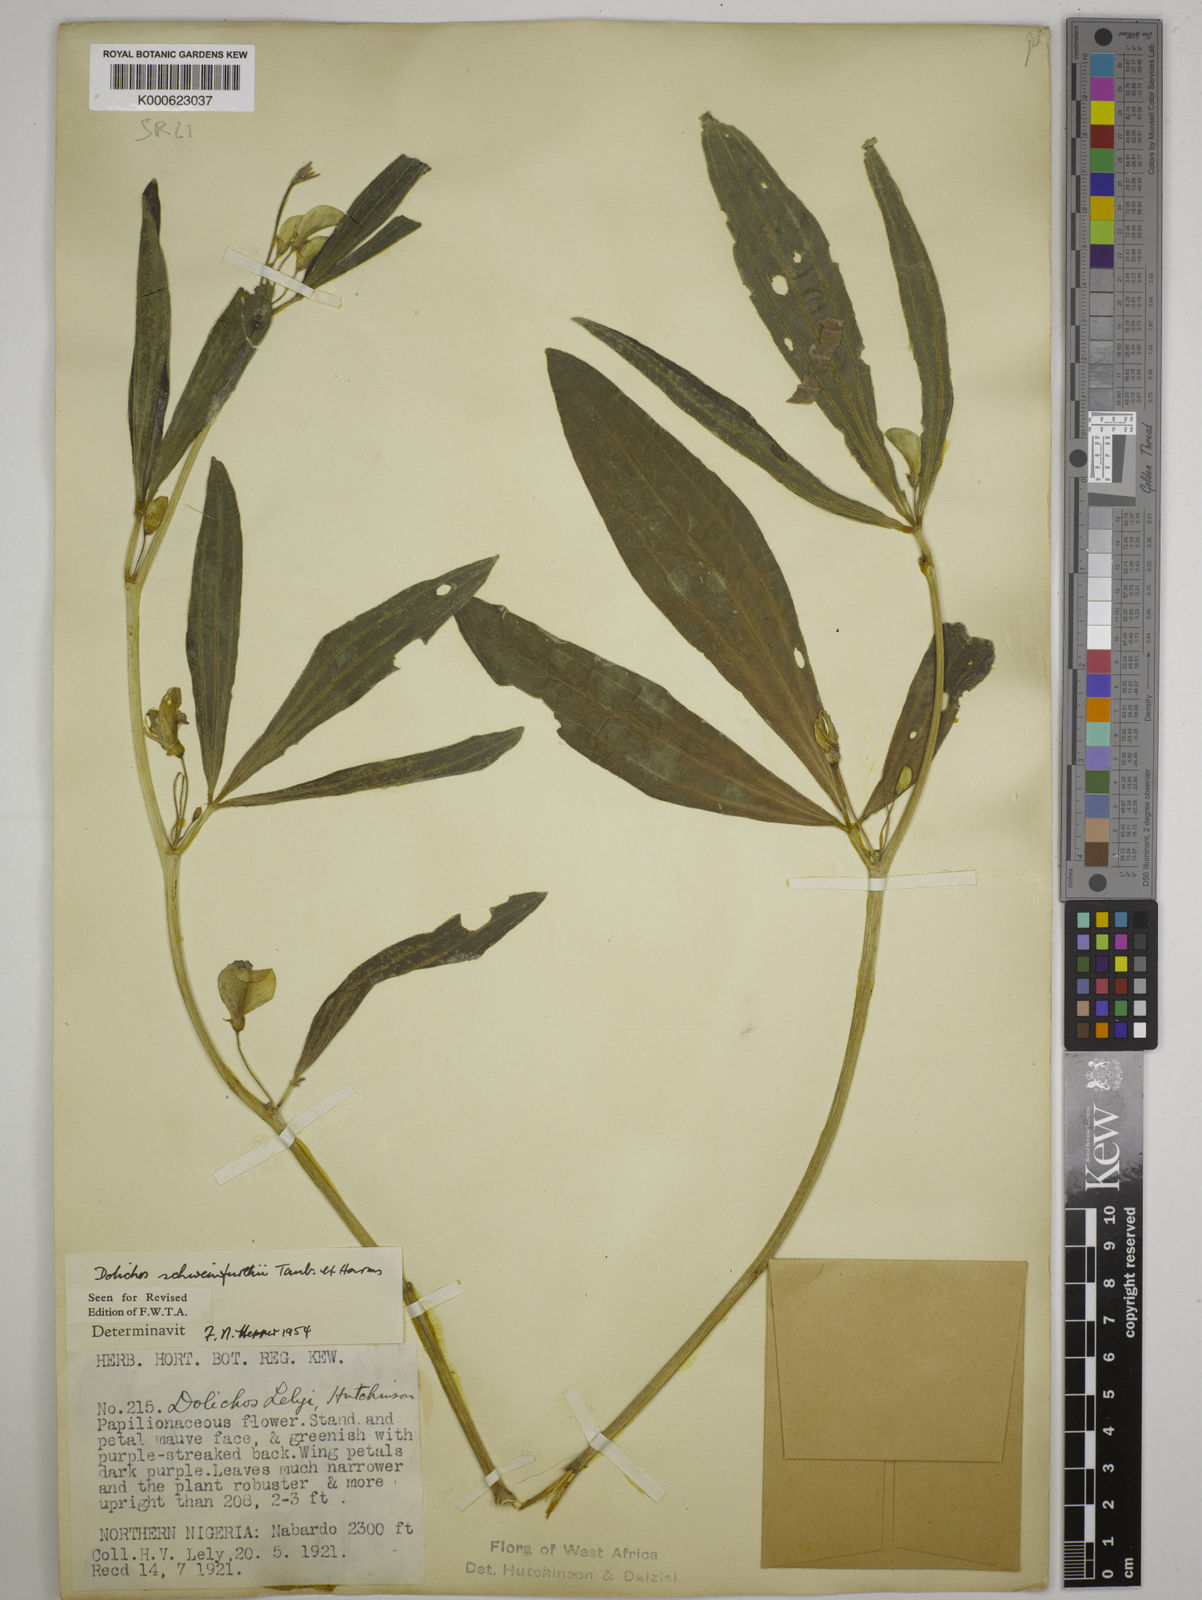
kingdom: Plantae
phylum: Tracheophyta
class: Magnoliopsida
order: Fabales
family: Fabaceae
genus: Dolichos
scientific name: Dolichos
